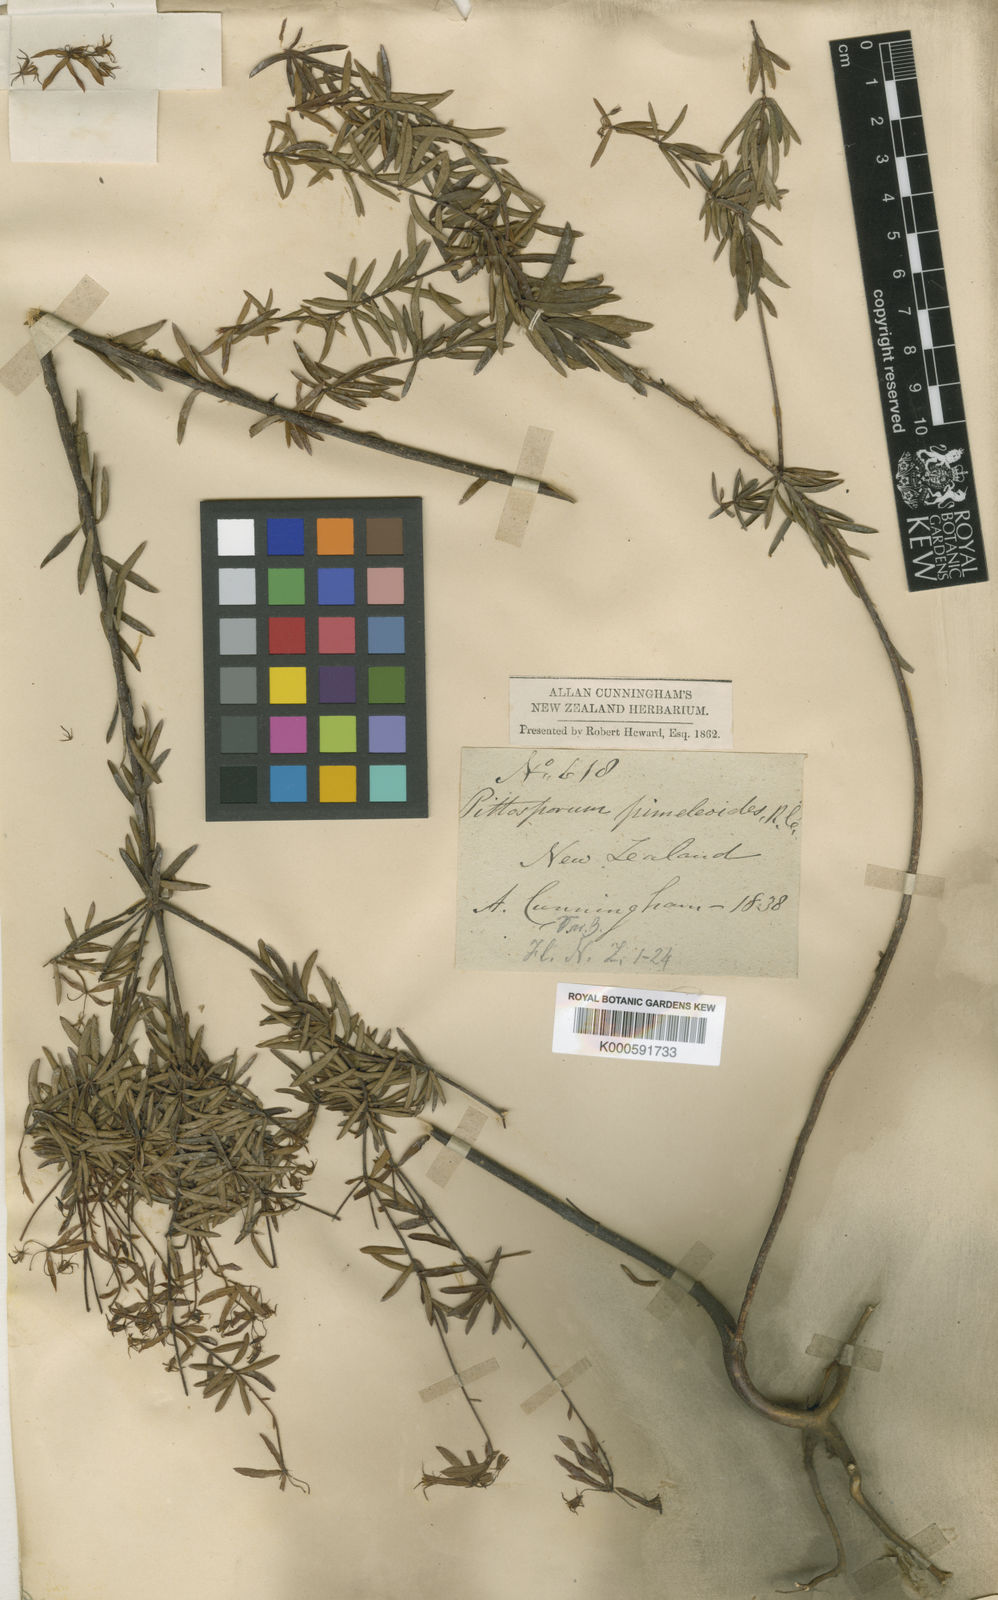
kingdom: Plantae
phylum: Tracheophyta
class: Magnoliopsida
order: Apiales
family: Pittosporaceae
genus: Pittosporum
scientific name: Pittosporum
